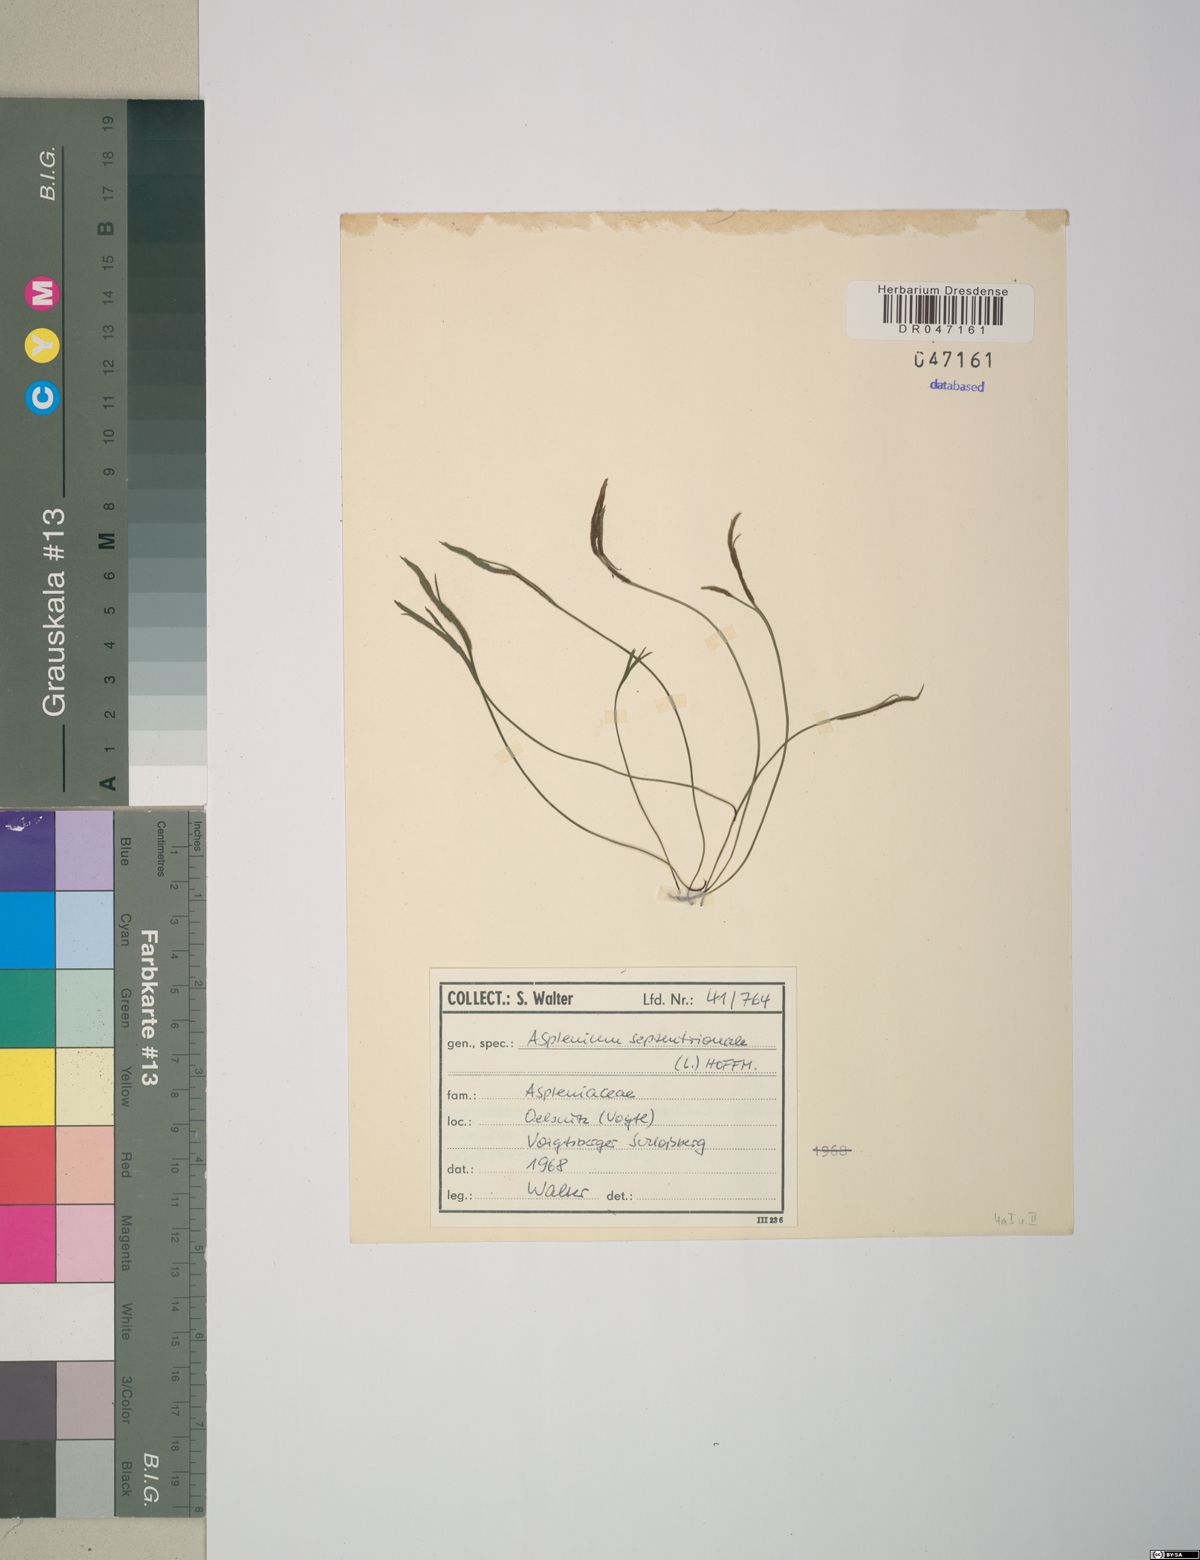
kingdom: Plantae
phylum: Tracheophyta
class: Polypodiopsida
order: Polypodiales
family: Aspleniaceae
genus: Asplenium
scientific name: Asplenium septentrionale
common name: Forked spleenwort
